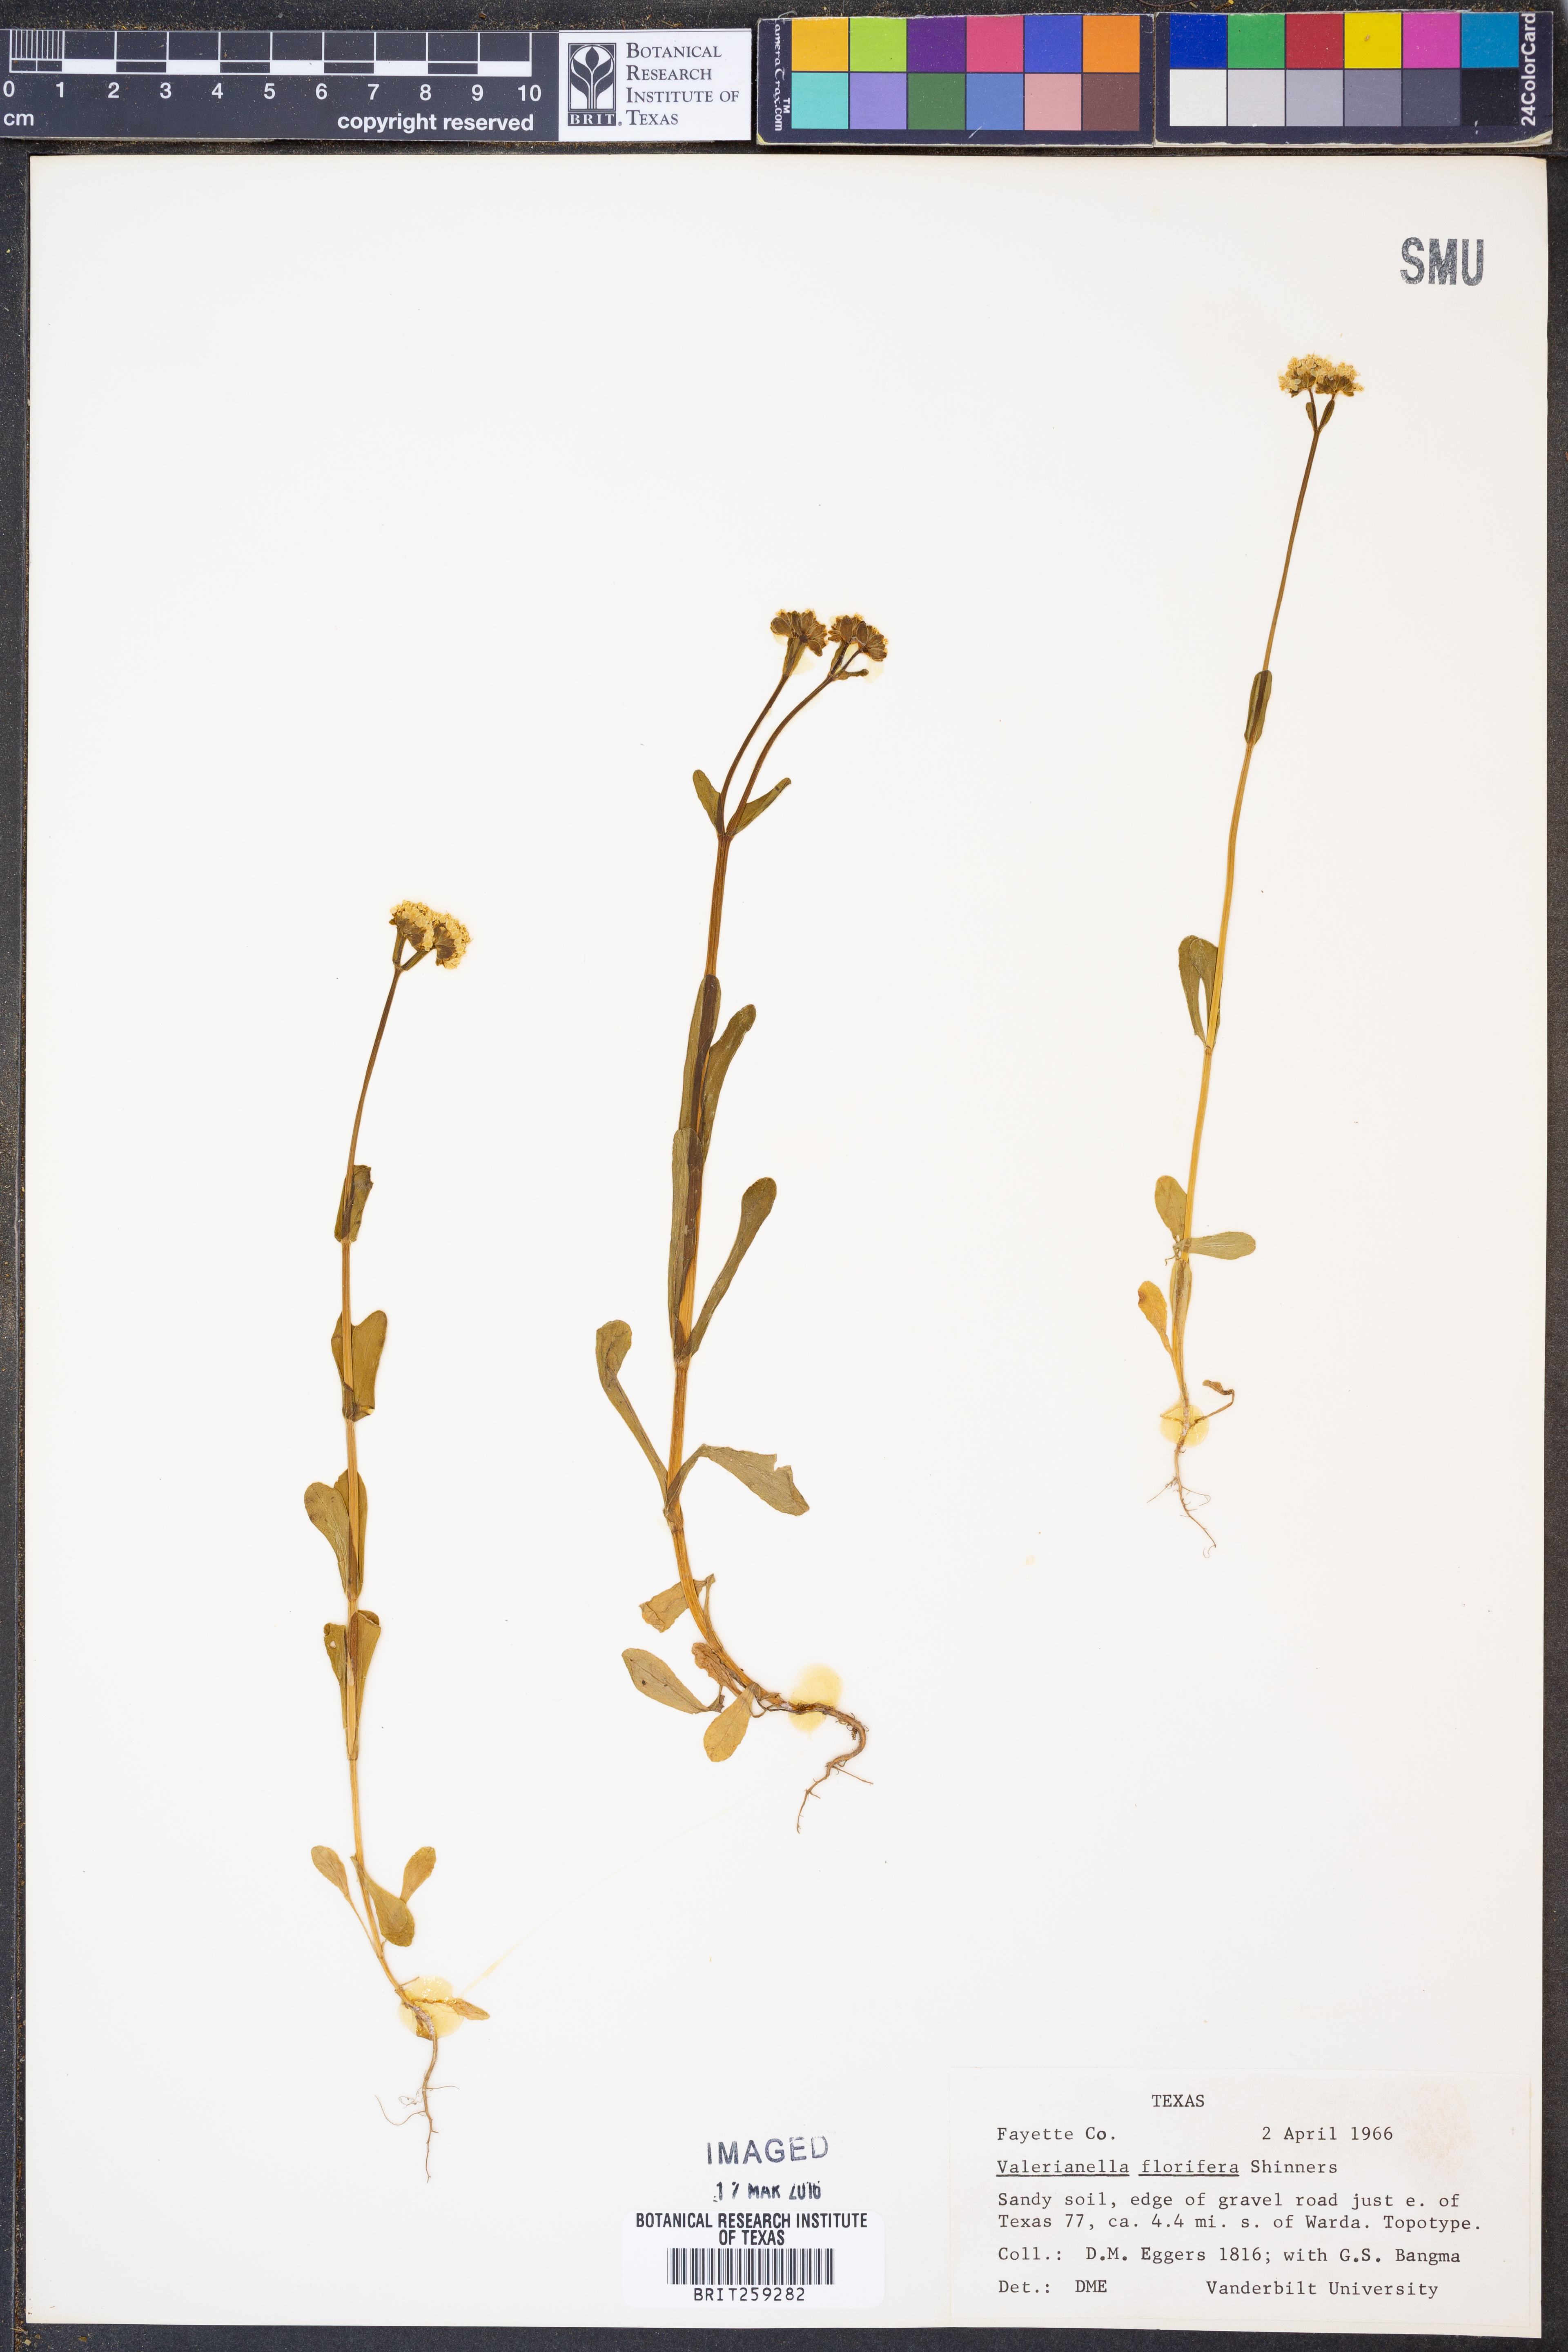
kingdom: Plantae
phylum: Tracheophyta
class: Magnoliopsida
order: Dipsacales
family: Caprifoliaceae
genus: Valerianella
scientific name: Valerianella florifera
